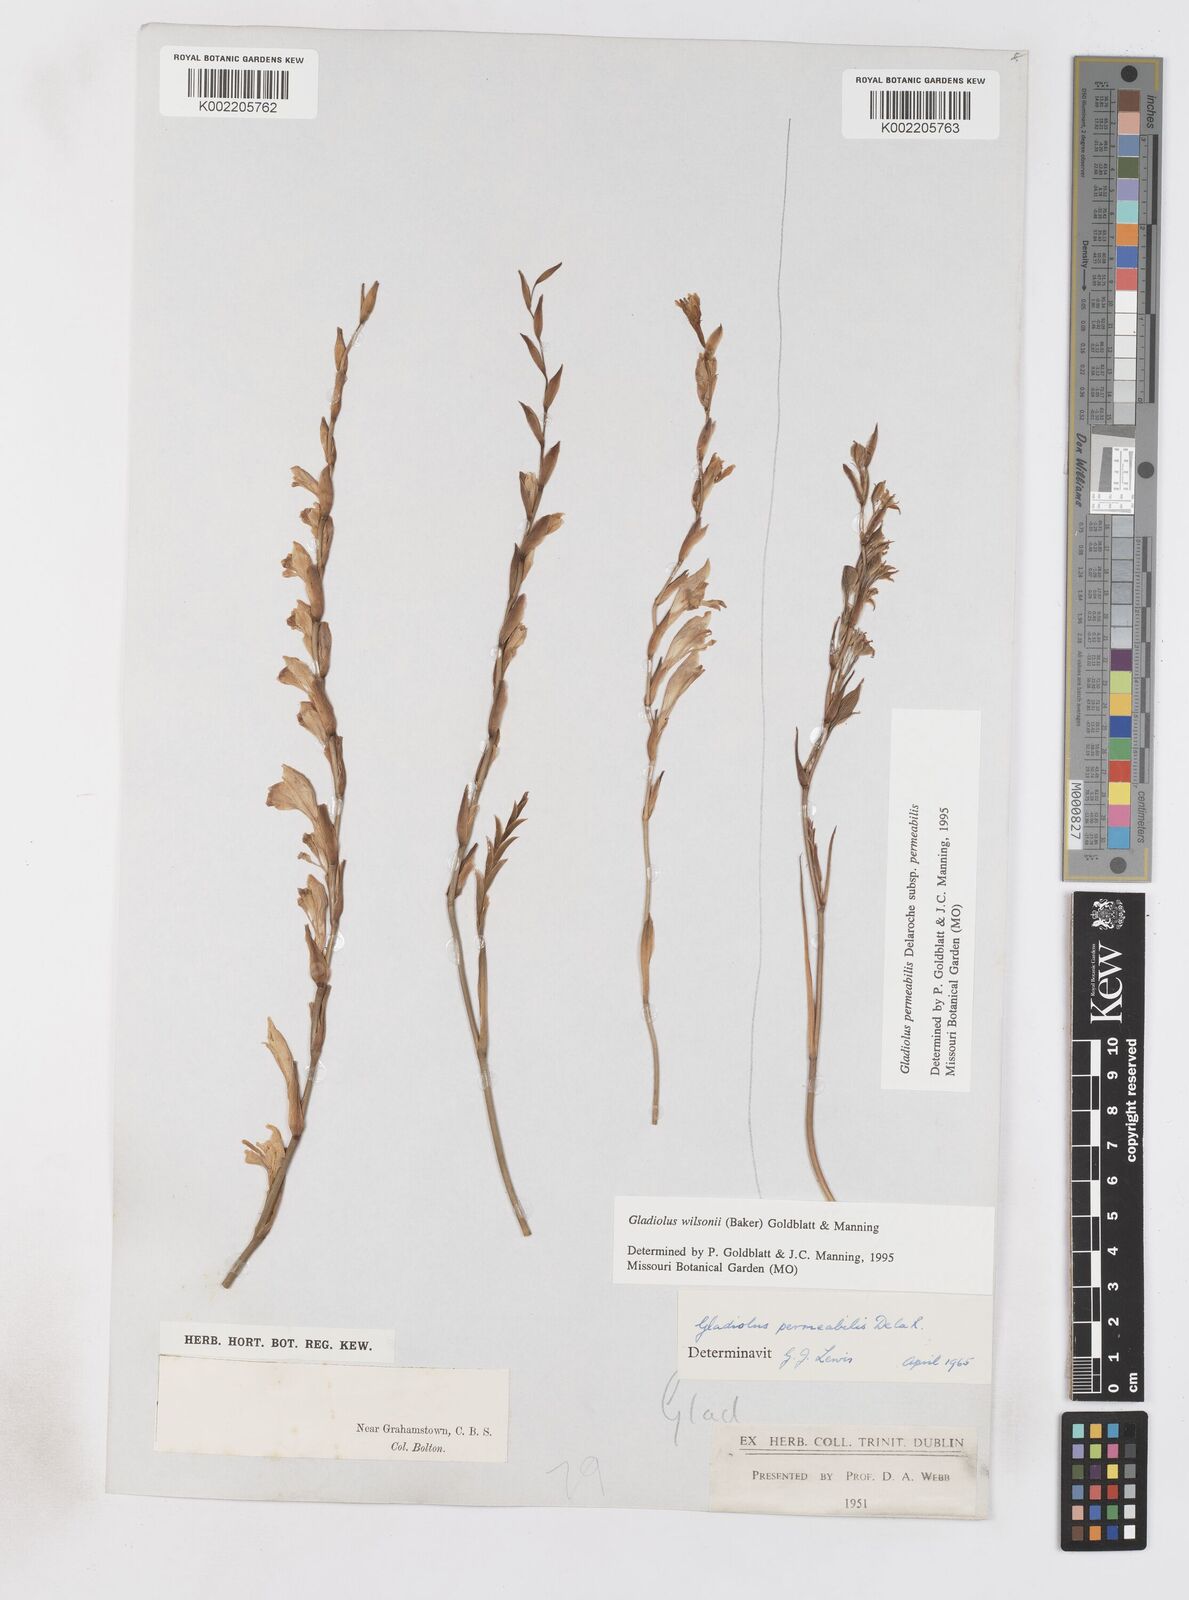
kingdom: Plantae
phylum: Tracheophyta
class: Liliopsida
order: Asparagales
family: Iridaceae
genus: Gladiolus
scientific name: Gladiolus wilsonii
